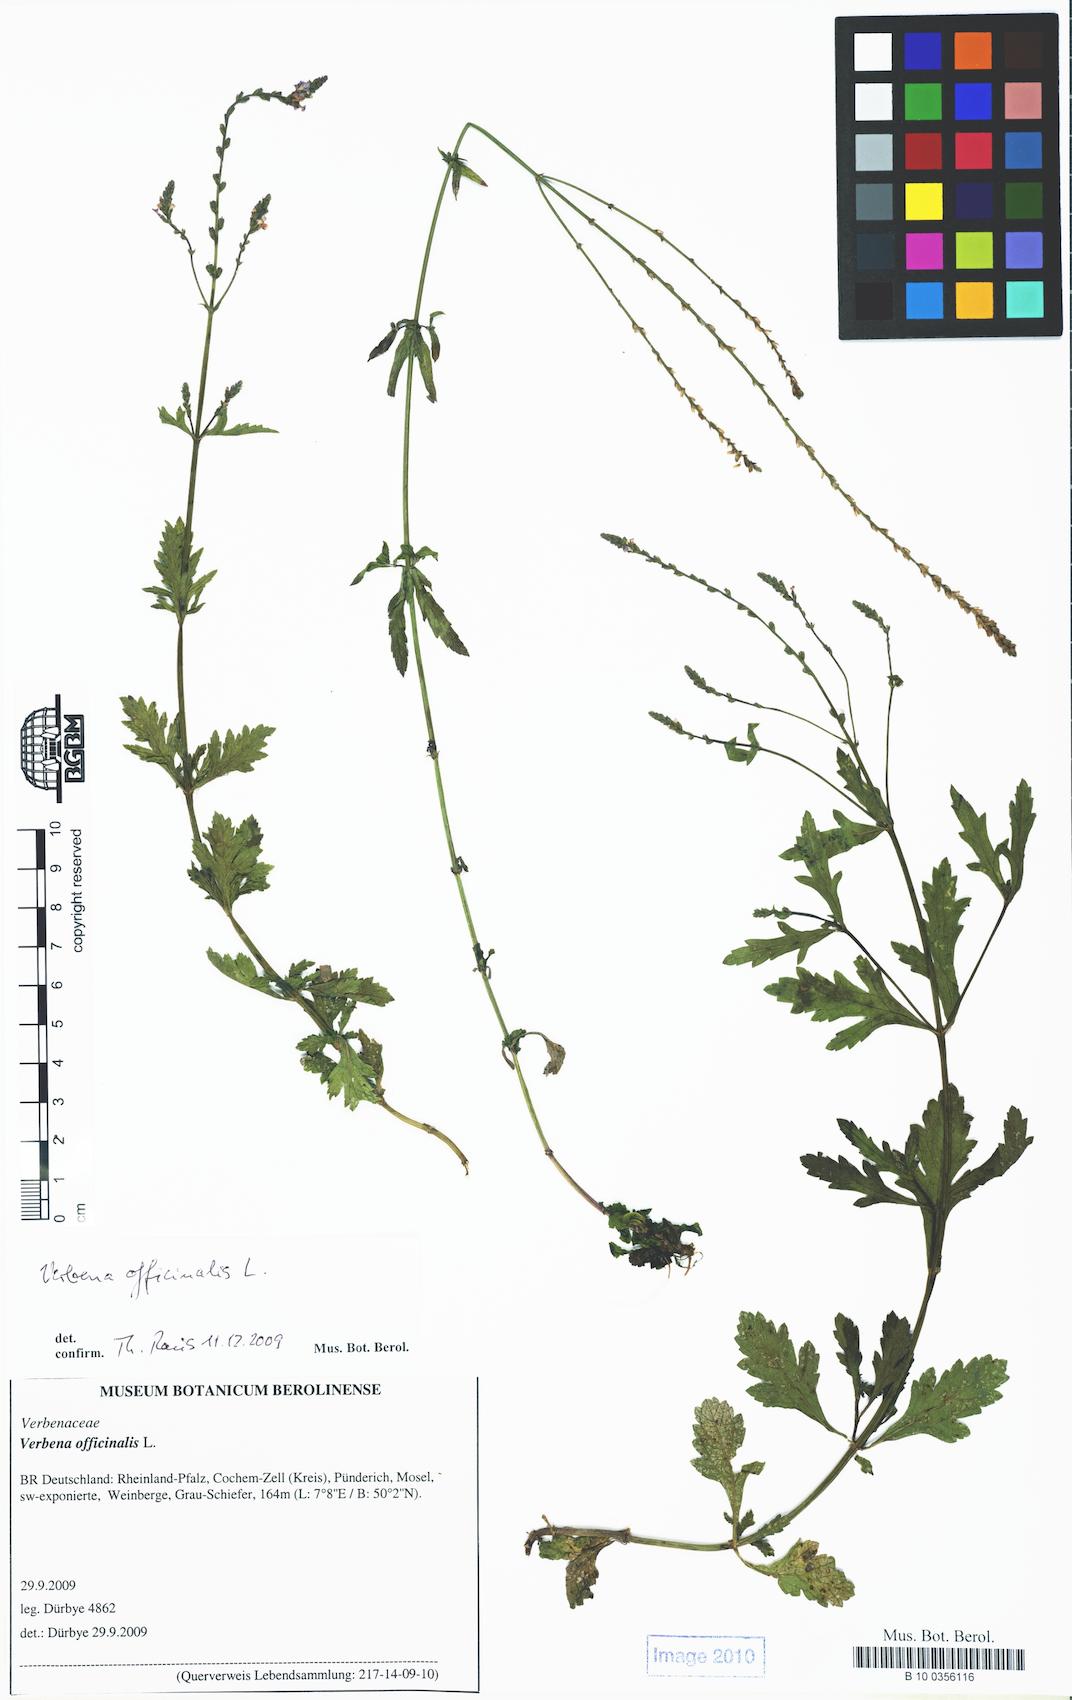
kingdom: Plantae
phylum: Tracheophyta
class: Magnoliopsida
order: Lamiales
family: Verbenaceae
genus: Verbena
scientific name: Verbena officinalis
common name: Vervain
